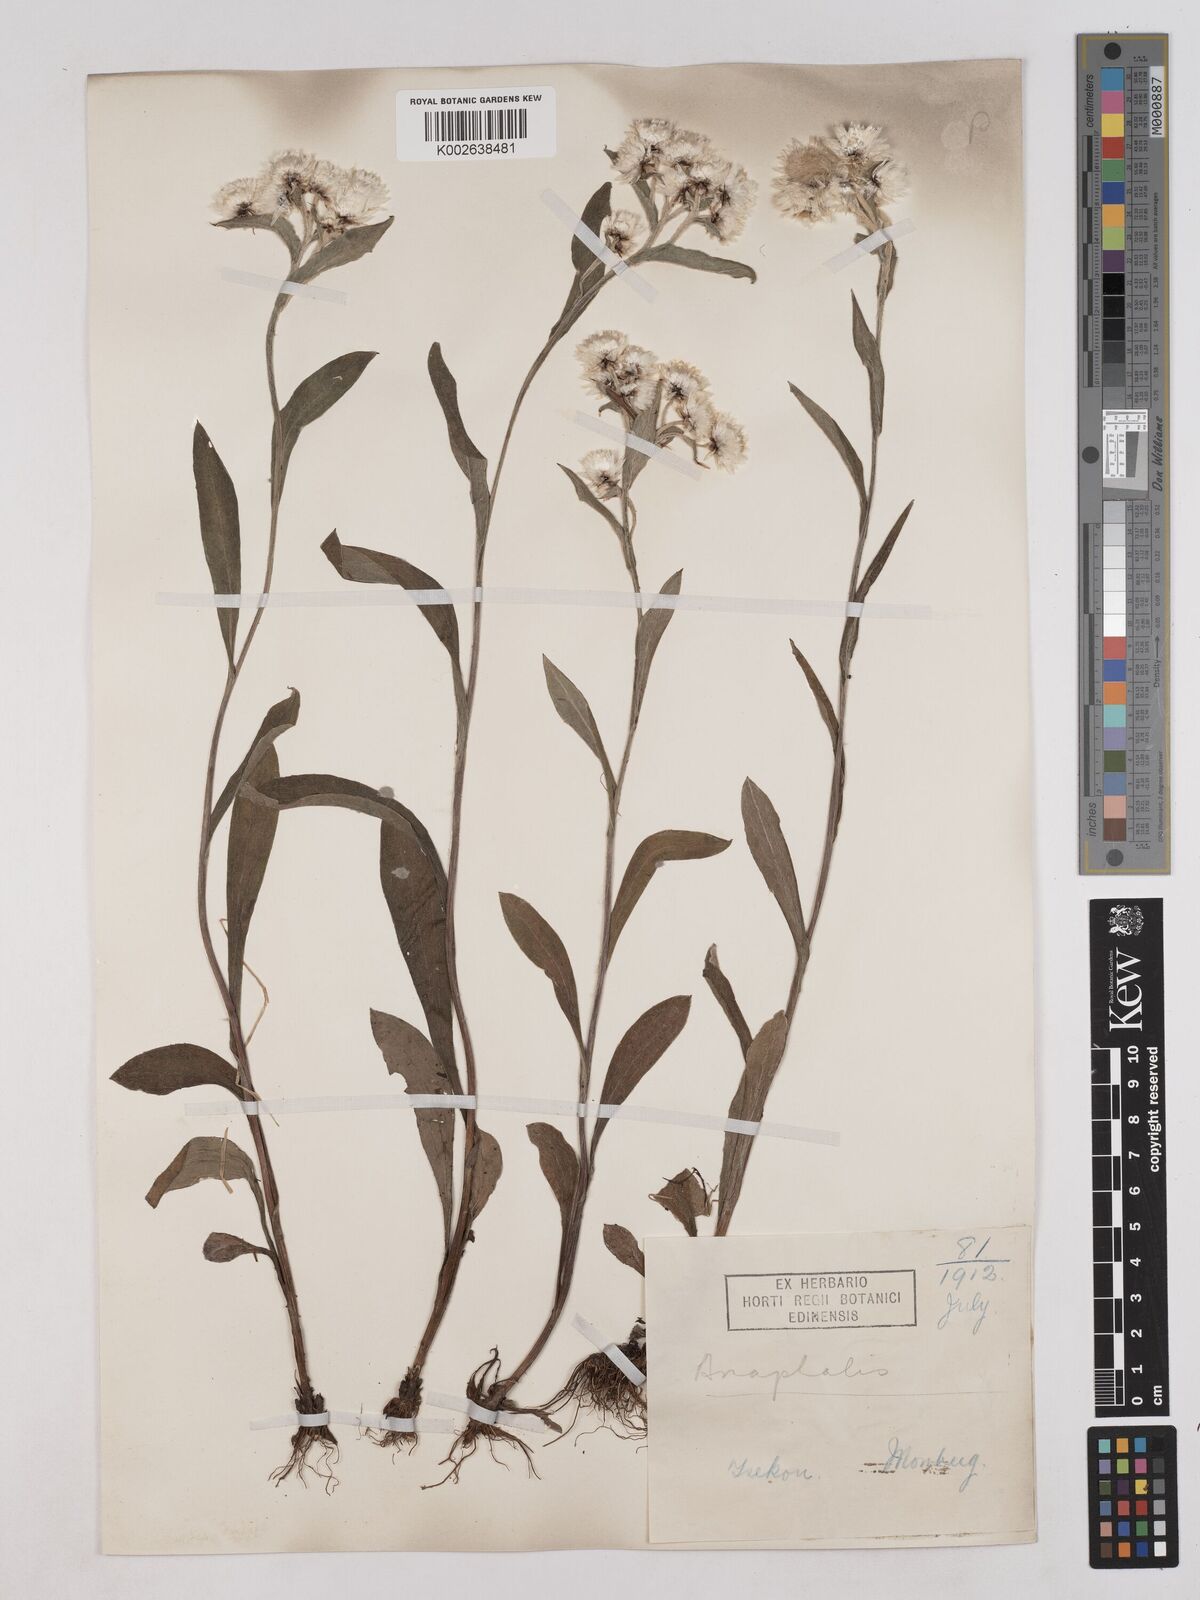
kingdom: Plantae
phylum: Tracheophyta
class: Magnoliopsida
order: Asterales
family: Asteraceae
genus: Anaphalis
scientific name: Anaphalis nepalensis
